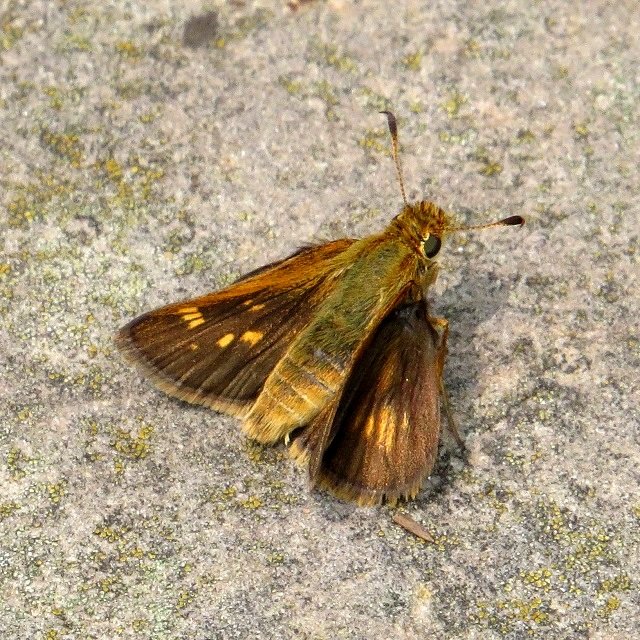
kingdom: Animalia
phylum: Arthropoda
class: Insecta
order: Lepidoptera
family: Hesperiidae
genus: Polites
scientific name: Polites coras
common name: Peck's Skipper
